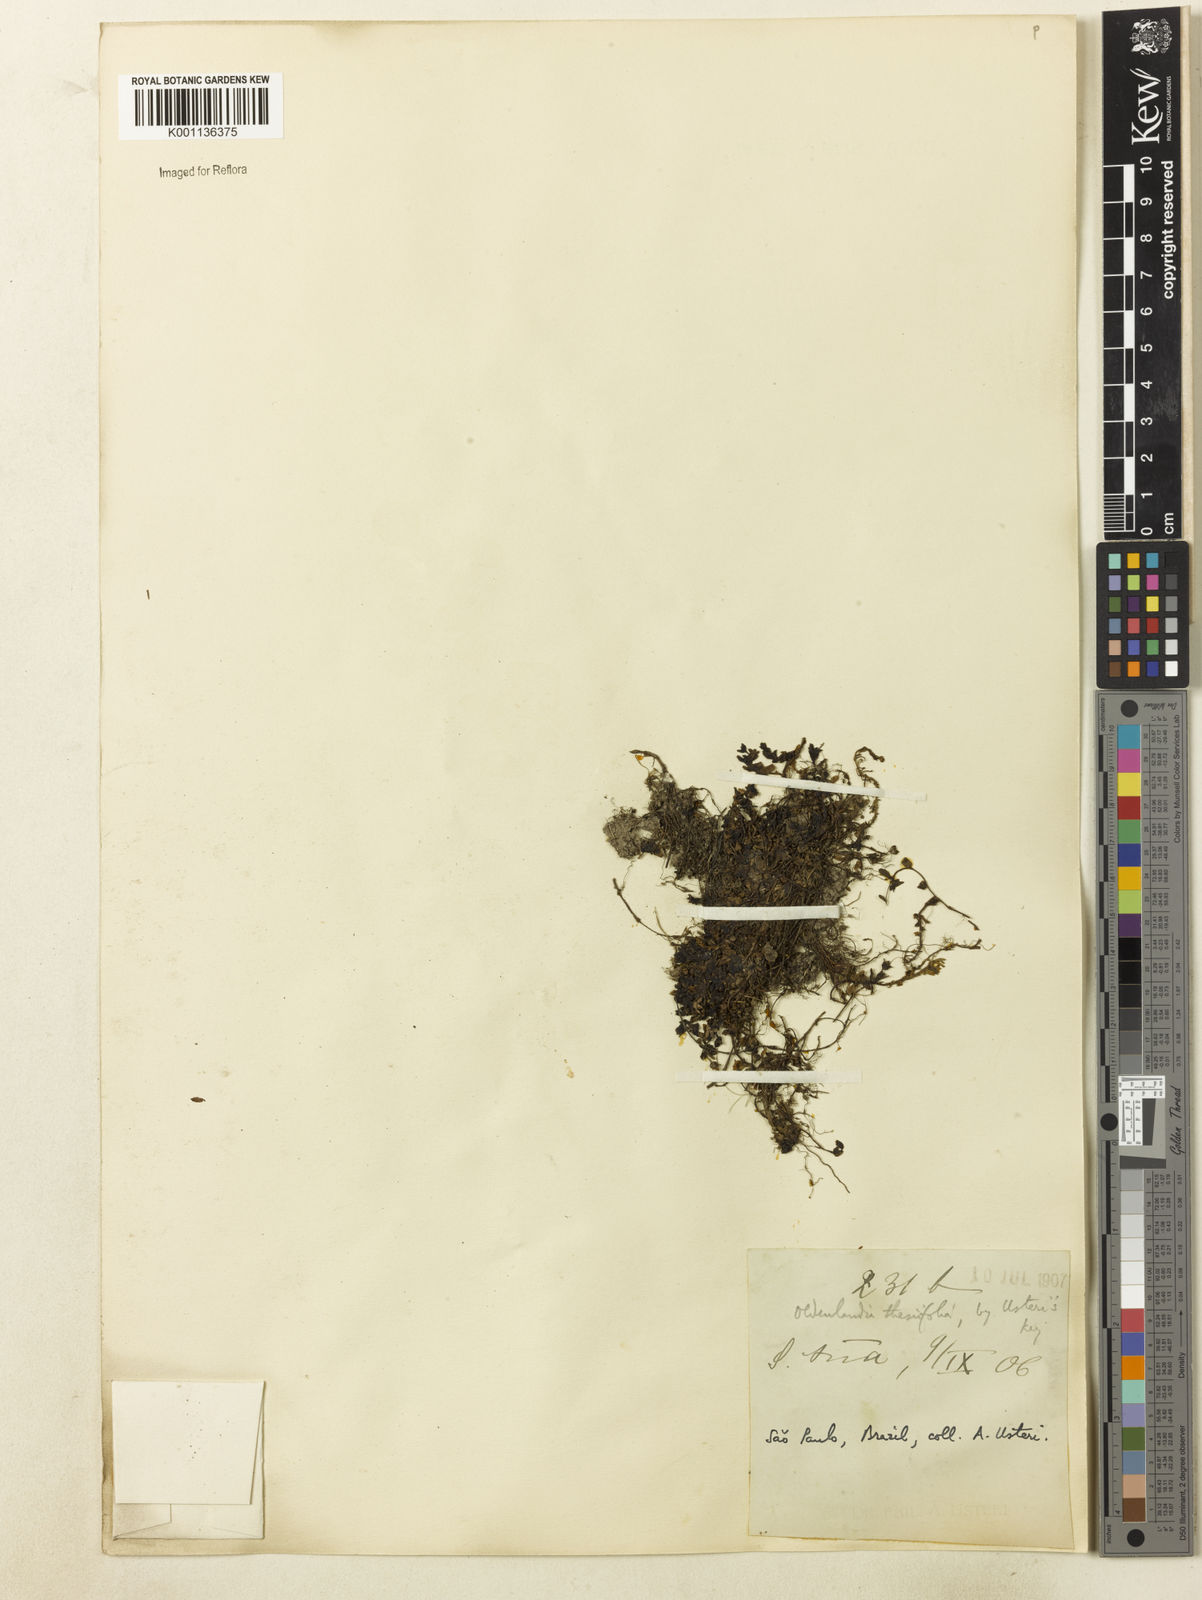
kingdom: Plantae
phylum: Tracheophyta
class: Magnoliopsida
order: Gentianales
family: Rubiaceae
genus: Oldenlandia
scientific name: Oldenlandia salzmannii
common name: Salzmann's mille graines
